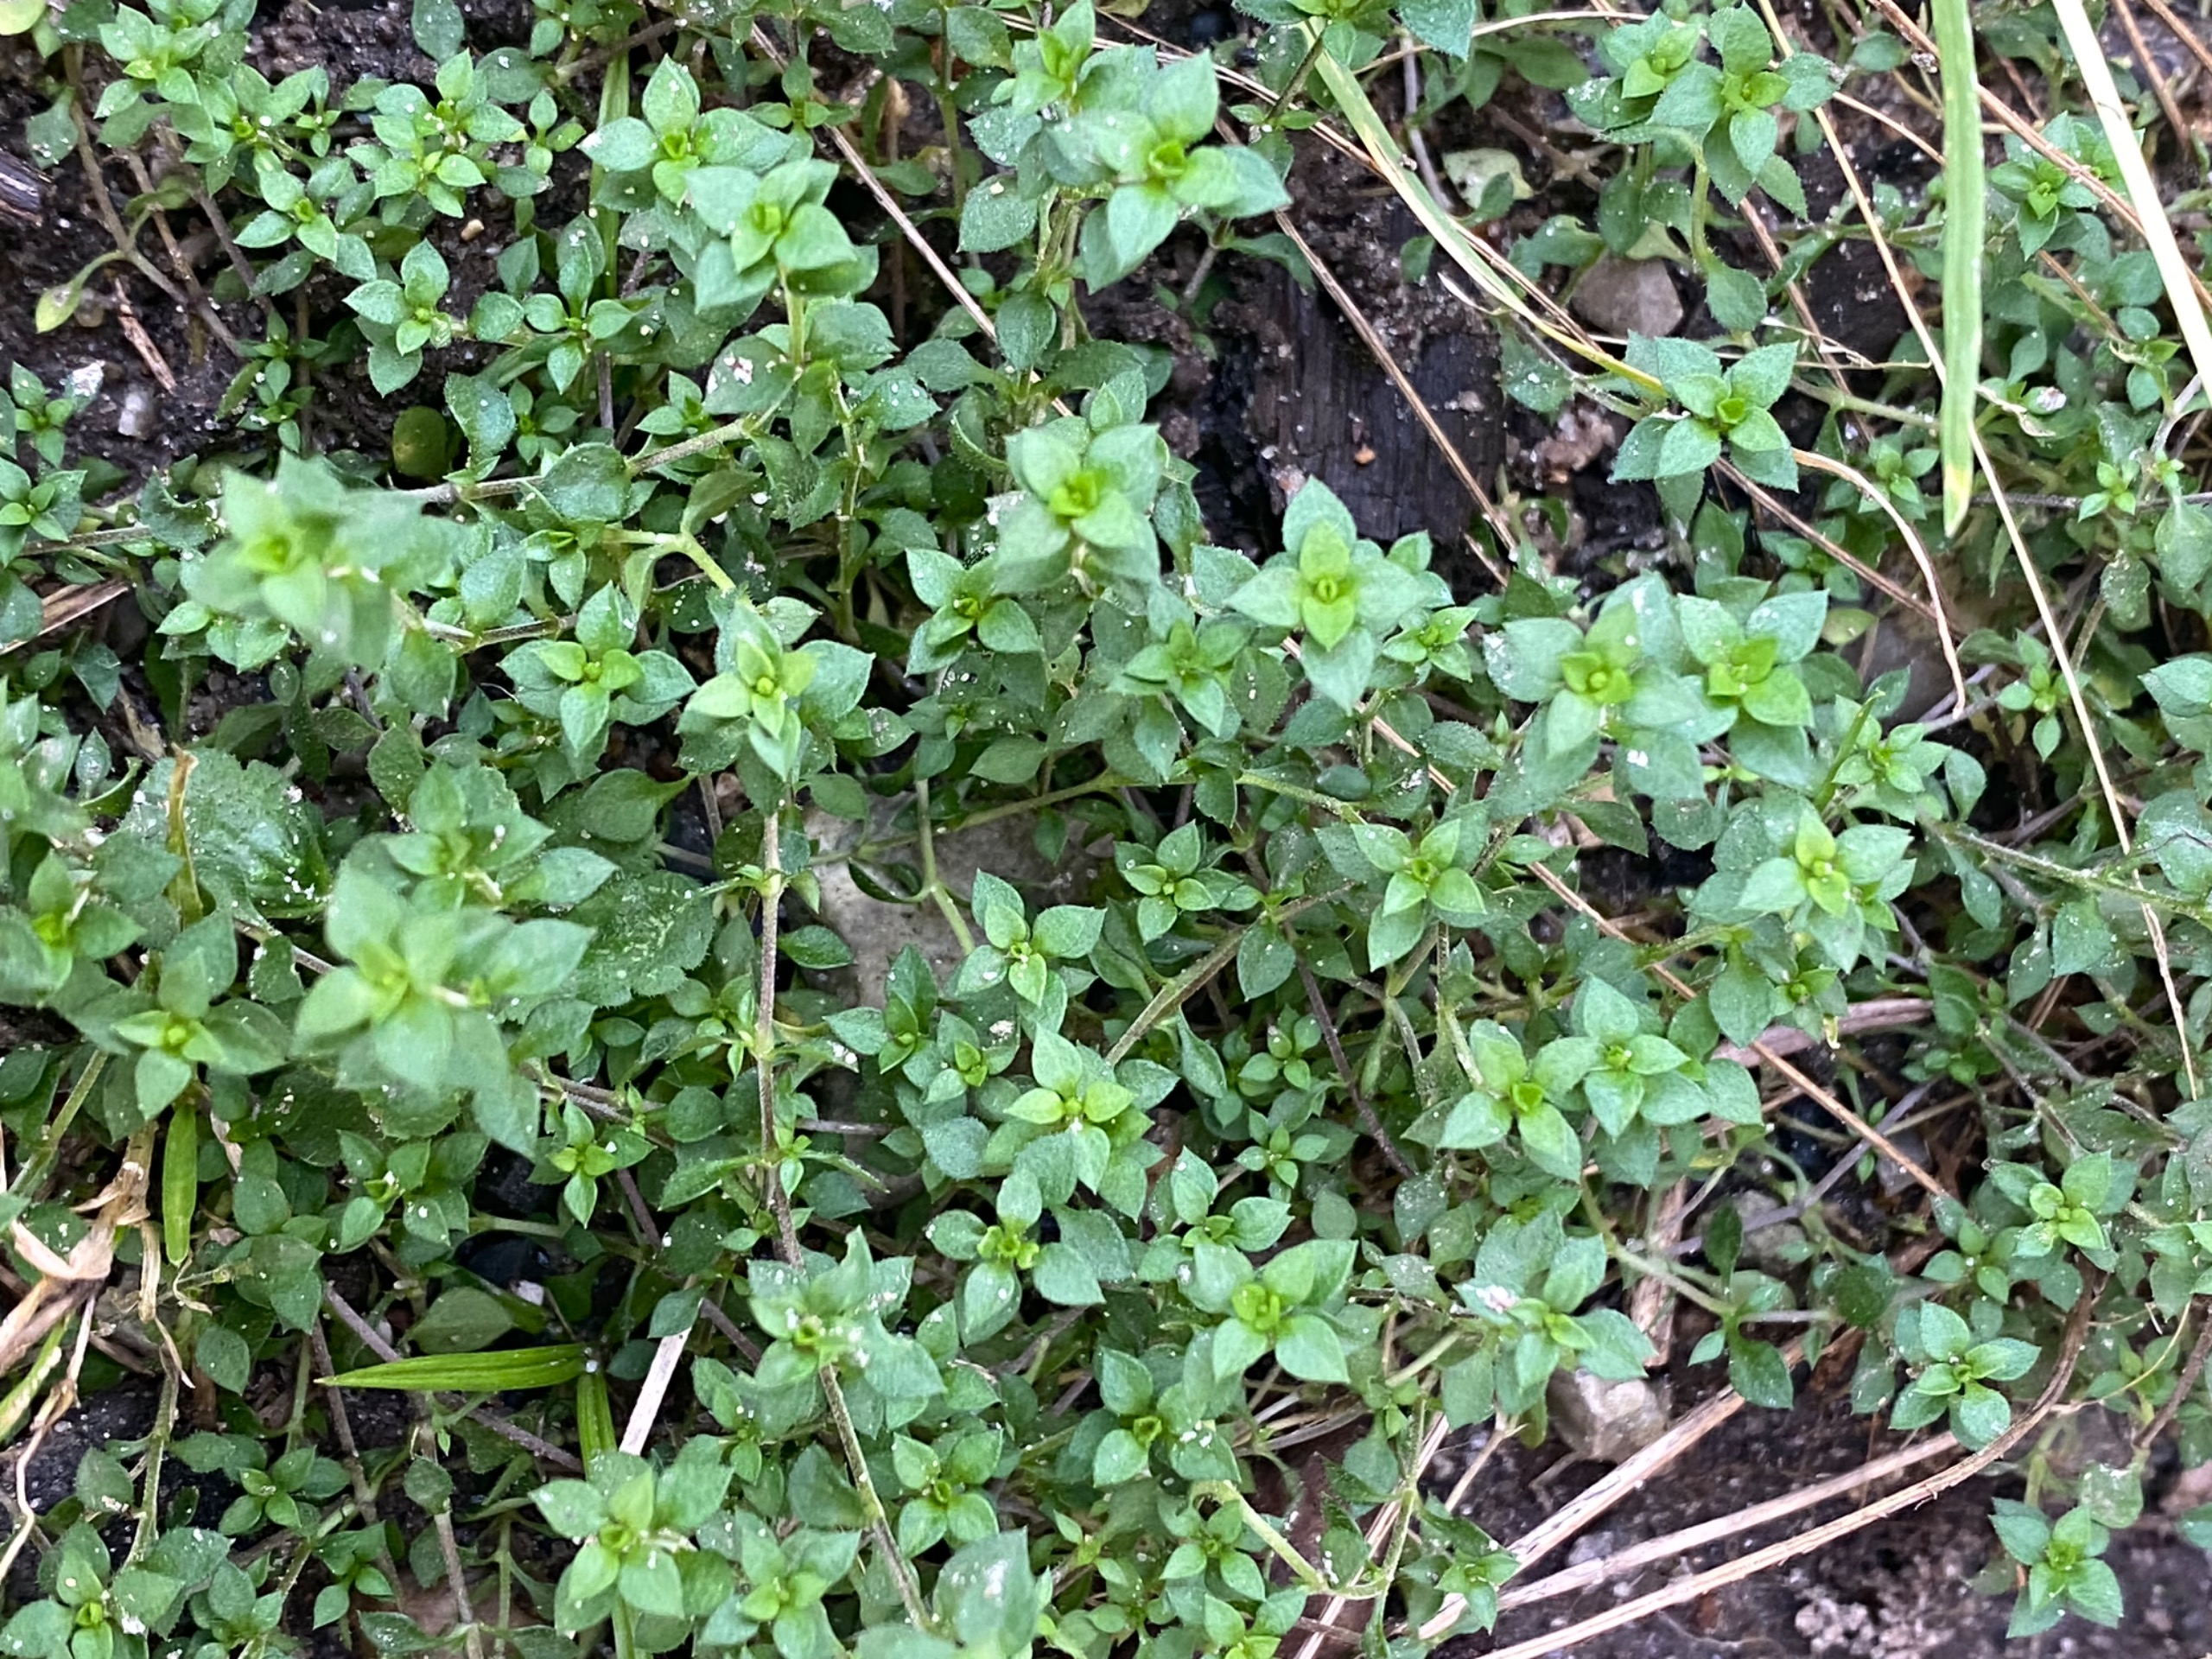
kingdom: Plantae
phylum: Tracheophyta
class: Magnoliopsida
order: Caryophyllales
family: Caryophyllaceae
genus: Arenaria
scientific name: Arenaria serpyllifolia
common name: Almindelig markarve
